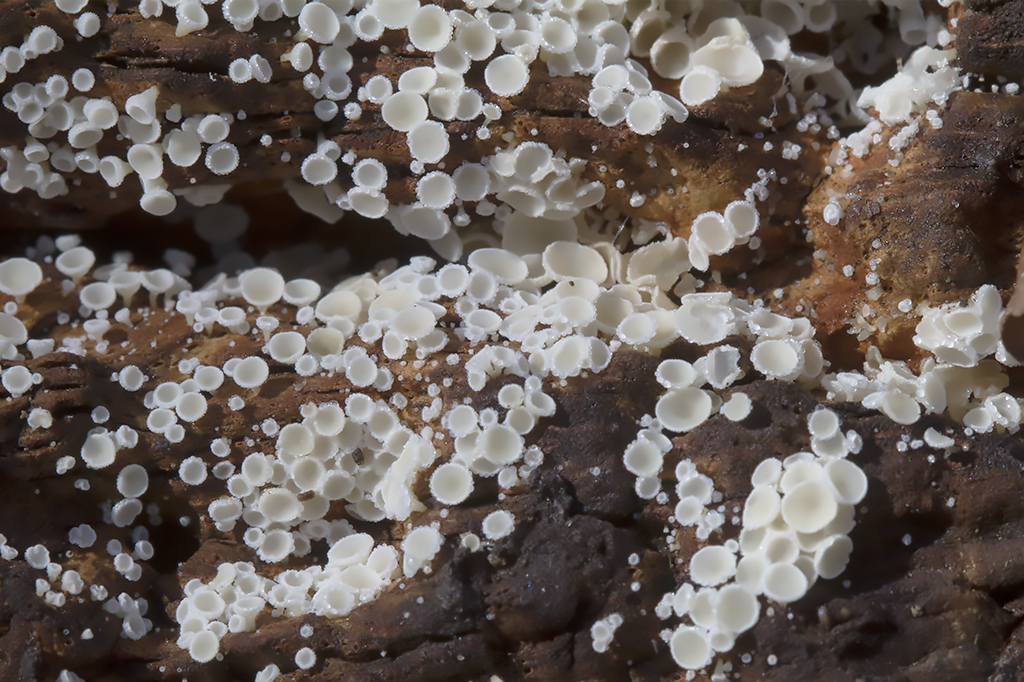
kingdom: Fungi
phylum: Ascomycota
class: Leotiomycetes
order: Helotiales
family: Lachnaceae
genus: Dasyscyphella
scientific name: Dasyscyphella nivea
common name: hvid frynseskive
